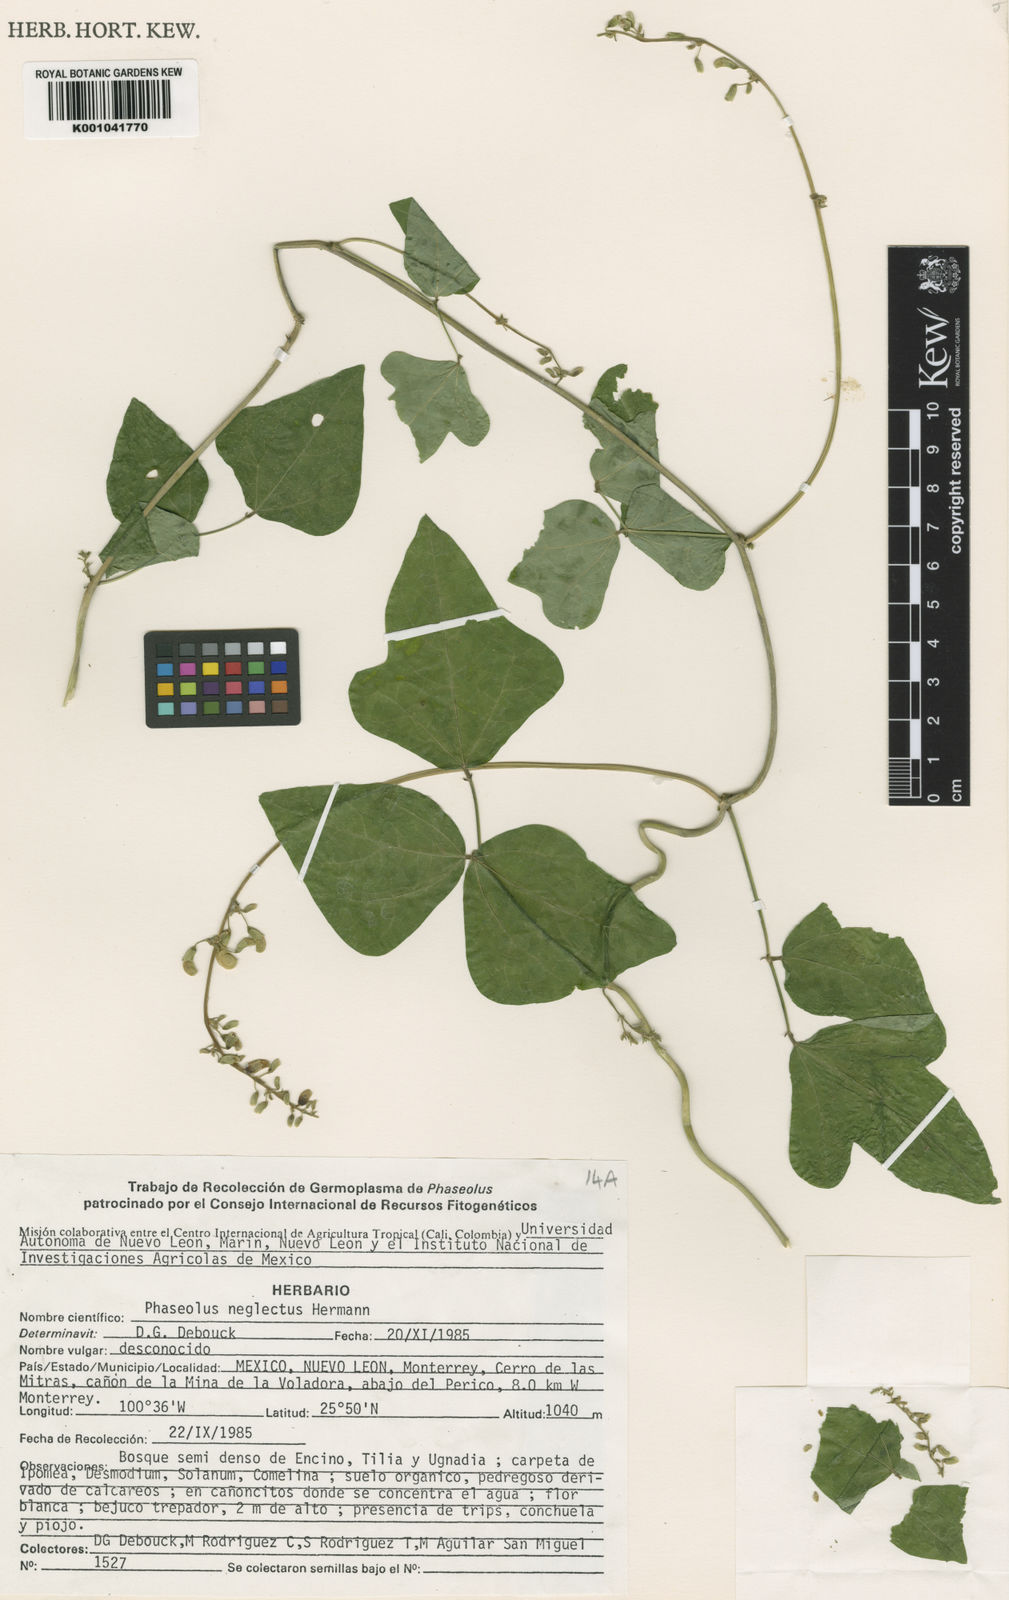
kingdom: Plantae
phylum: Tracheophyta
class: Magnoliopsida
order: Fabales
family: Fabaceae
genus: Phaseolus
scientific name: Phaseolus albiflorus
